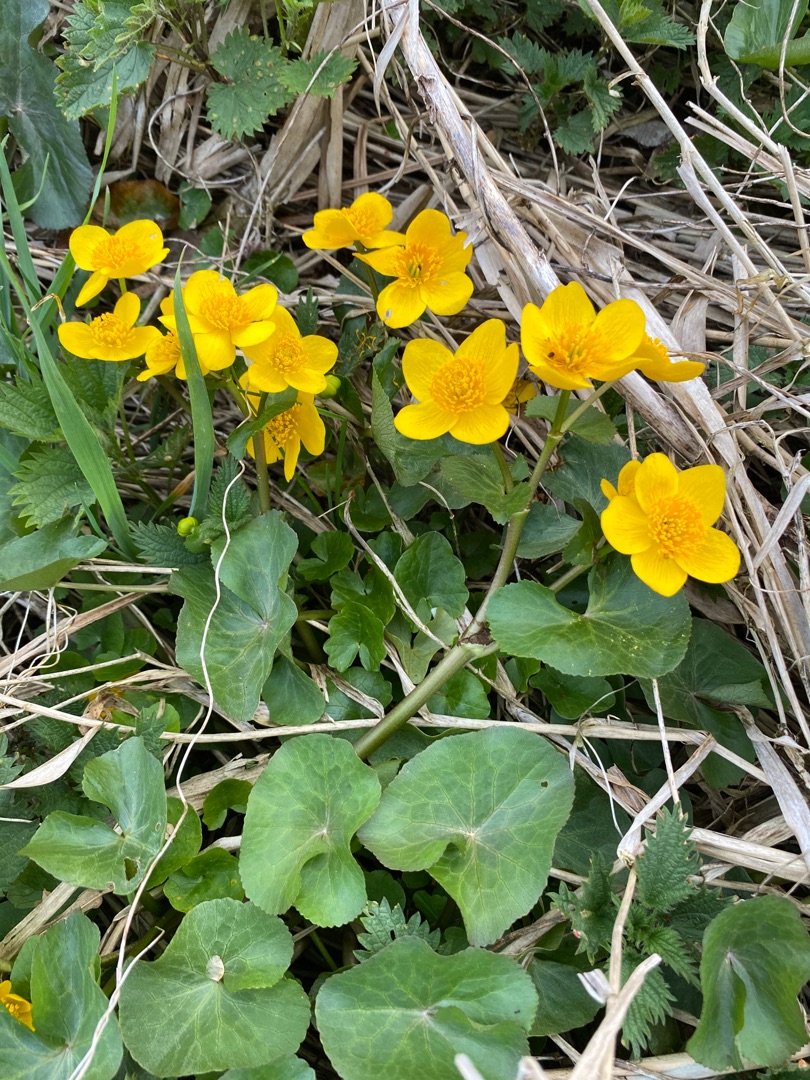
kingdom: Plantae
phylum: Tracheophyta
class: Magnoliopsida
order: Ranunculales
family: Ranunculaceae
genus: Caltha
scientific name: Caltha palustris
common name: Eng-kabbeleje
